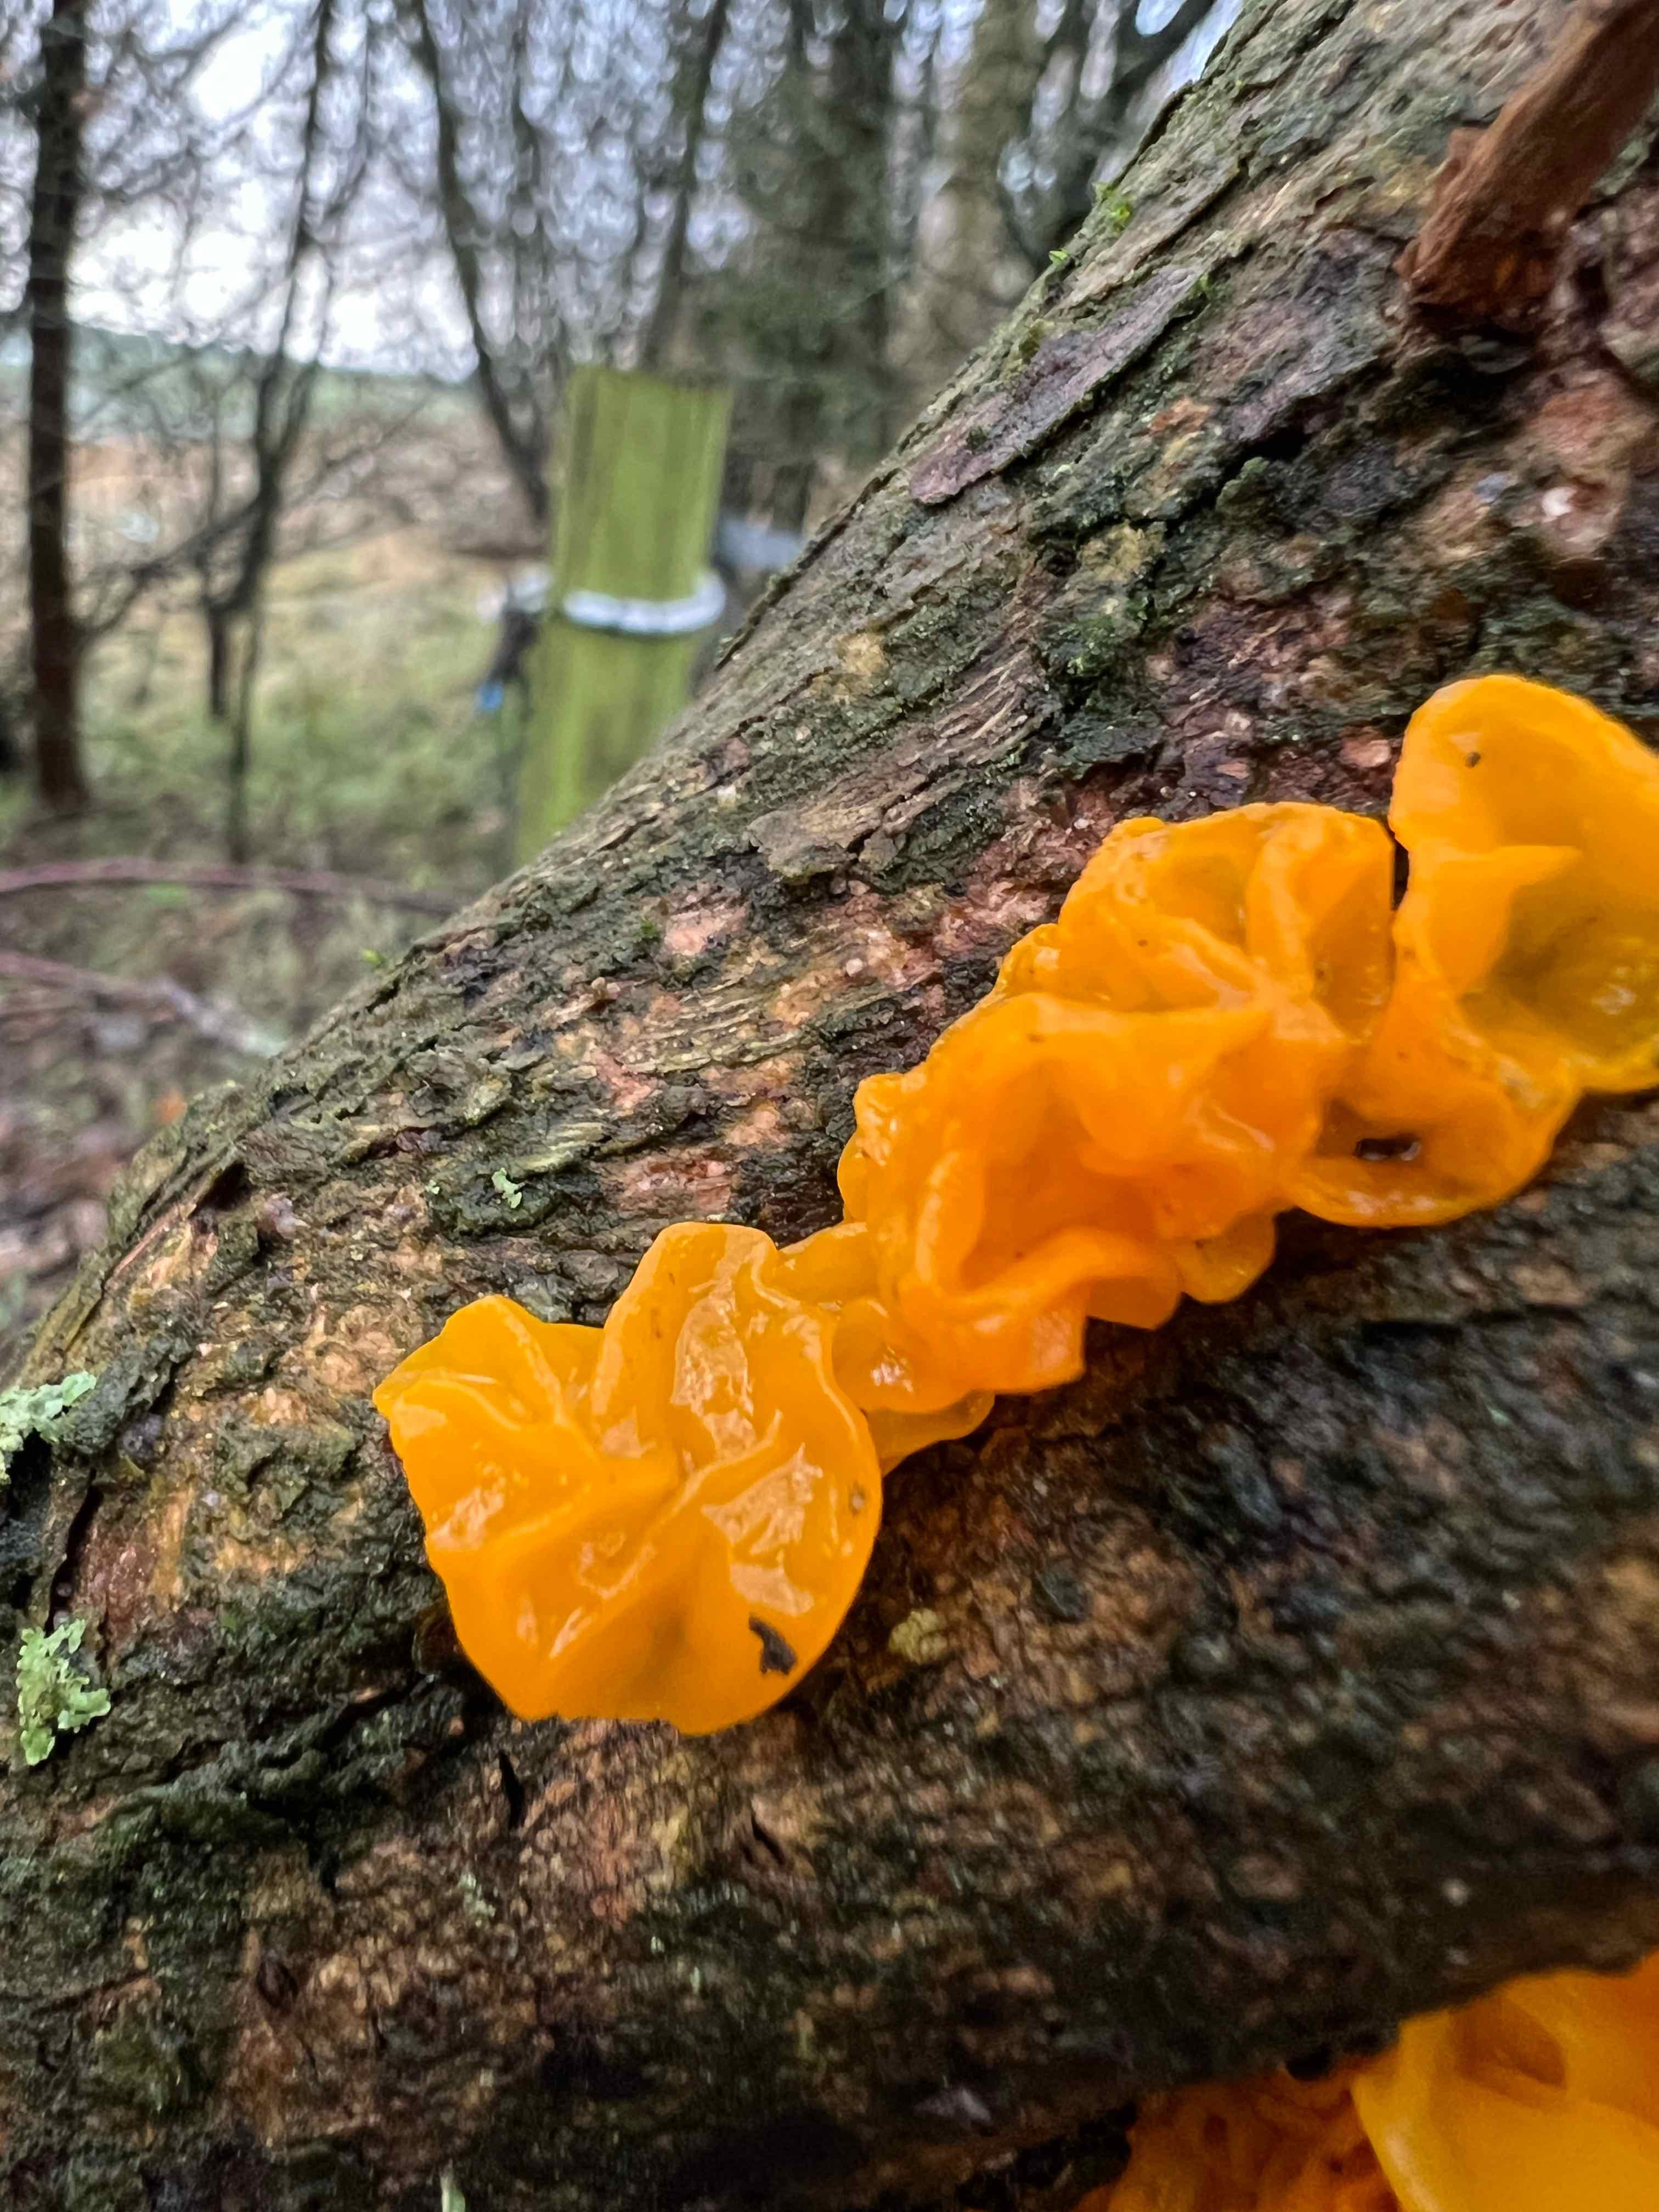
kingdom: Fungi
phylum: Basidiomycota
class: Tremellomycetes
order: Tremellales
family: Tremellaceae
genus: Tremella
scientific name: Tremella mesenterica
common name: gul bævresvamp
